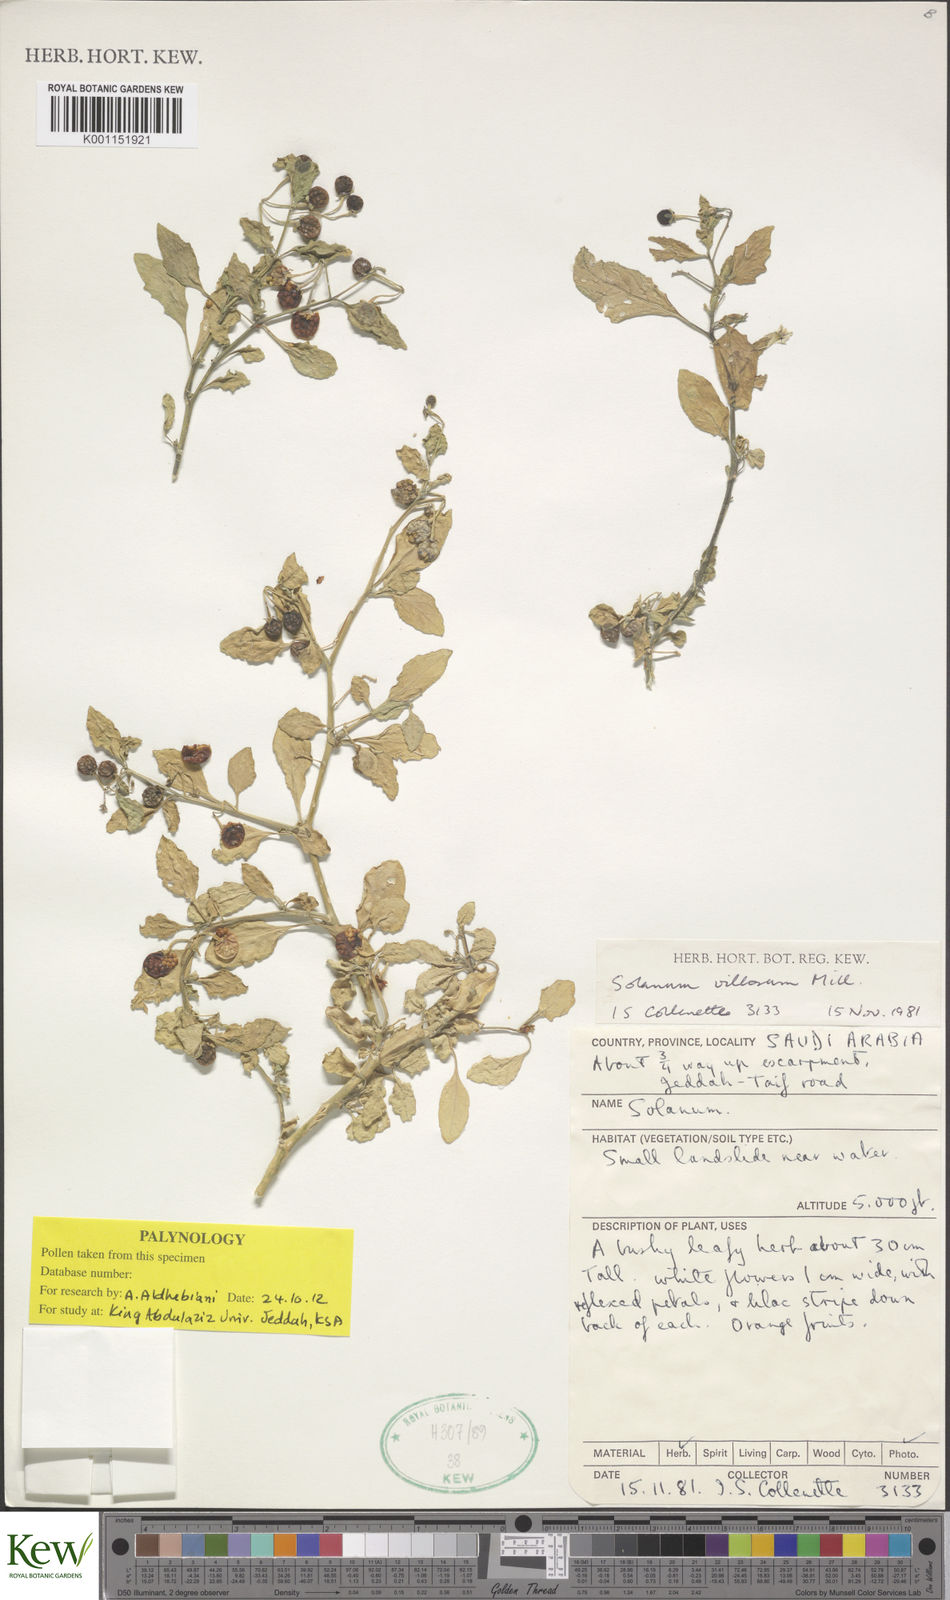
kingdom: Plantae
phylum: Tracheophyta
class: Magnoliopsida
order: Solanales
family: Solanaceae
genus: Solanum
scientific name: Solanum villosum
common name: Red nightshade
